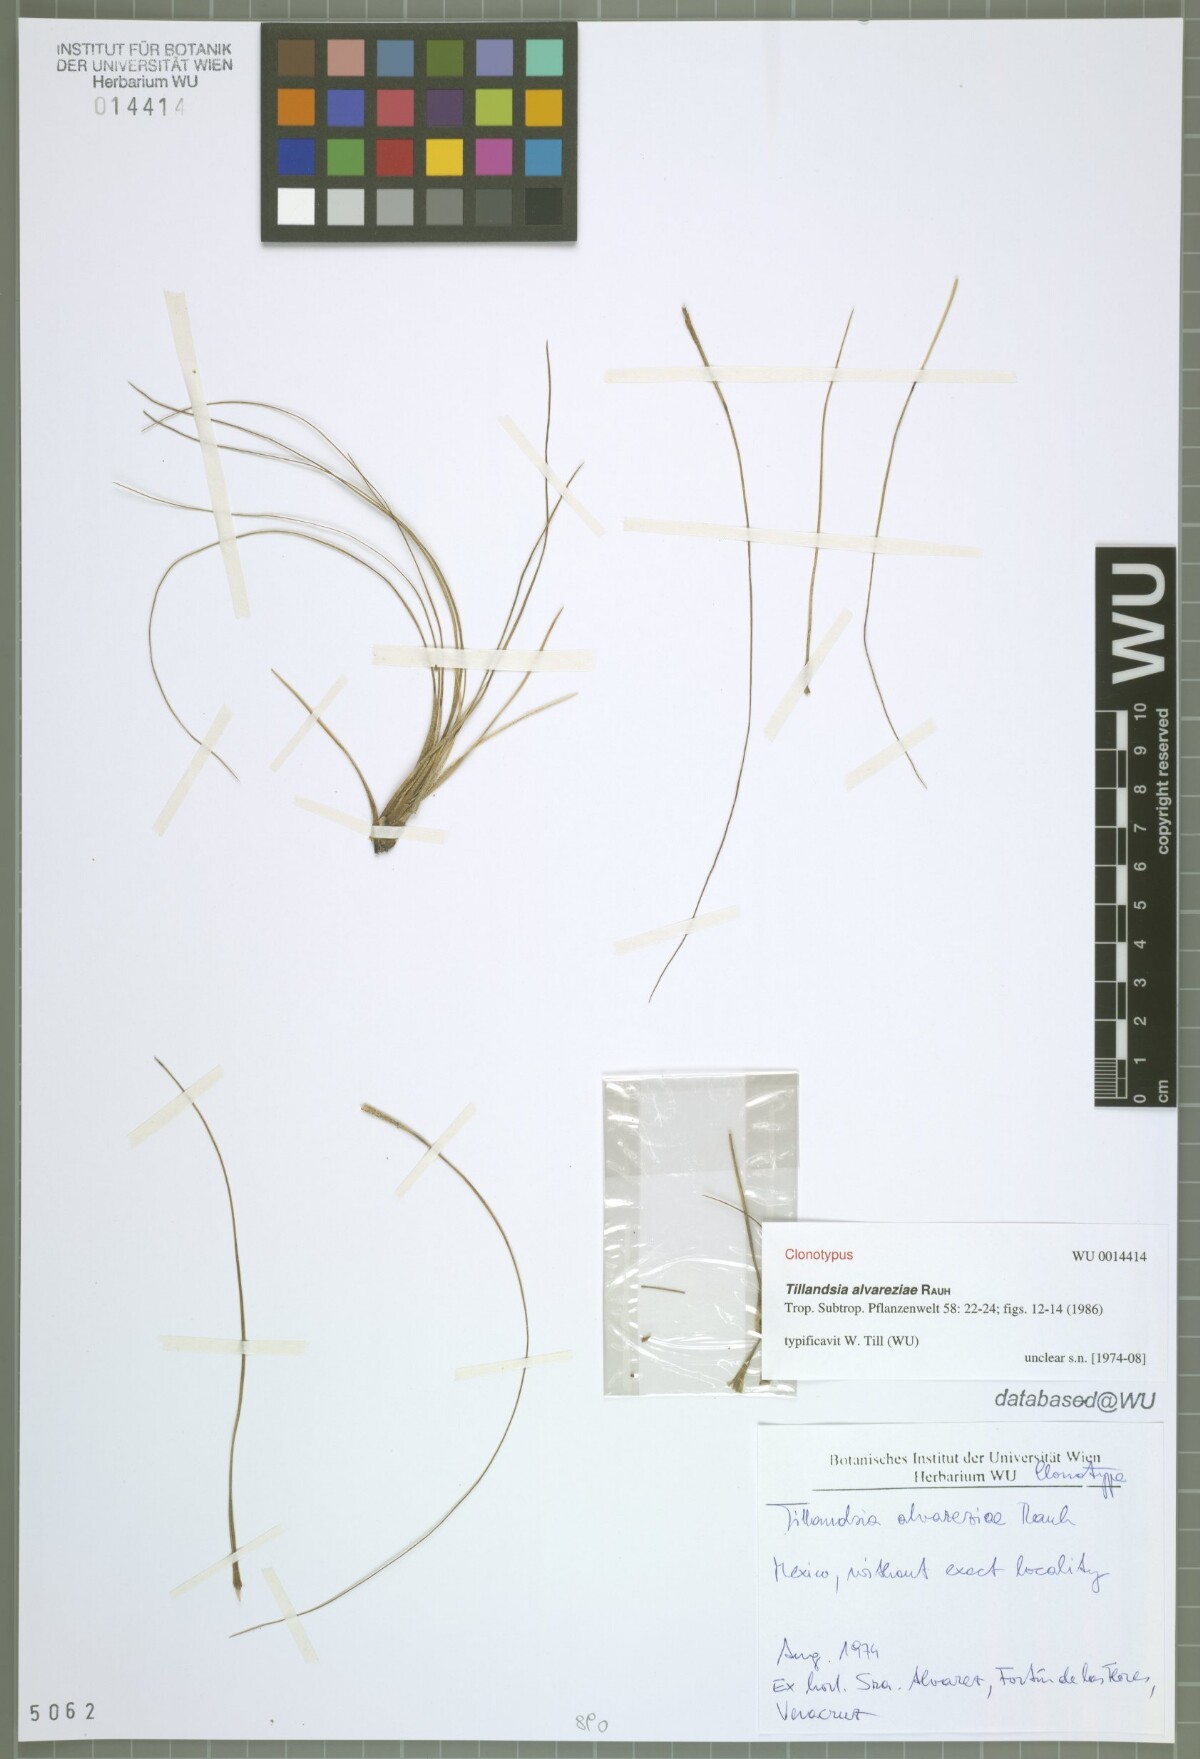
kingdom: Plantae
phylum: Tracheophyta
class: Liliopsida
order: Poales
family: Bromeliaceae
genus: Tillandsia
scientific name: Tillandsia alvareziae
